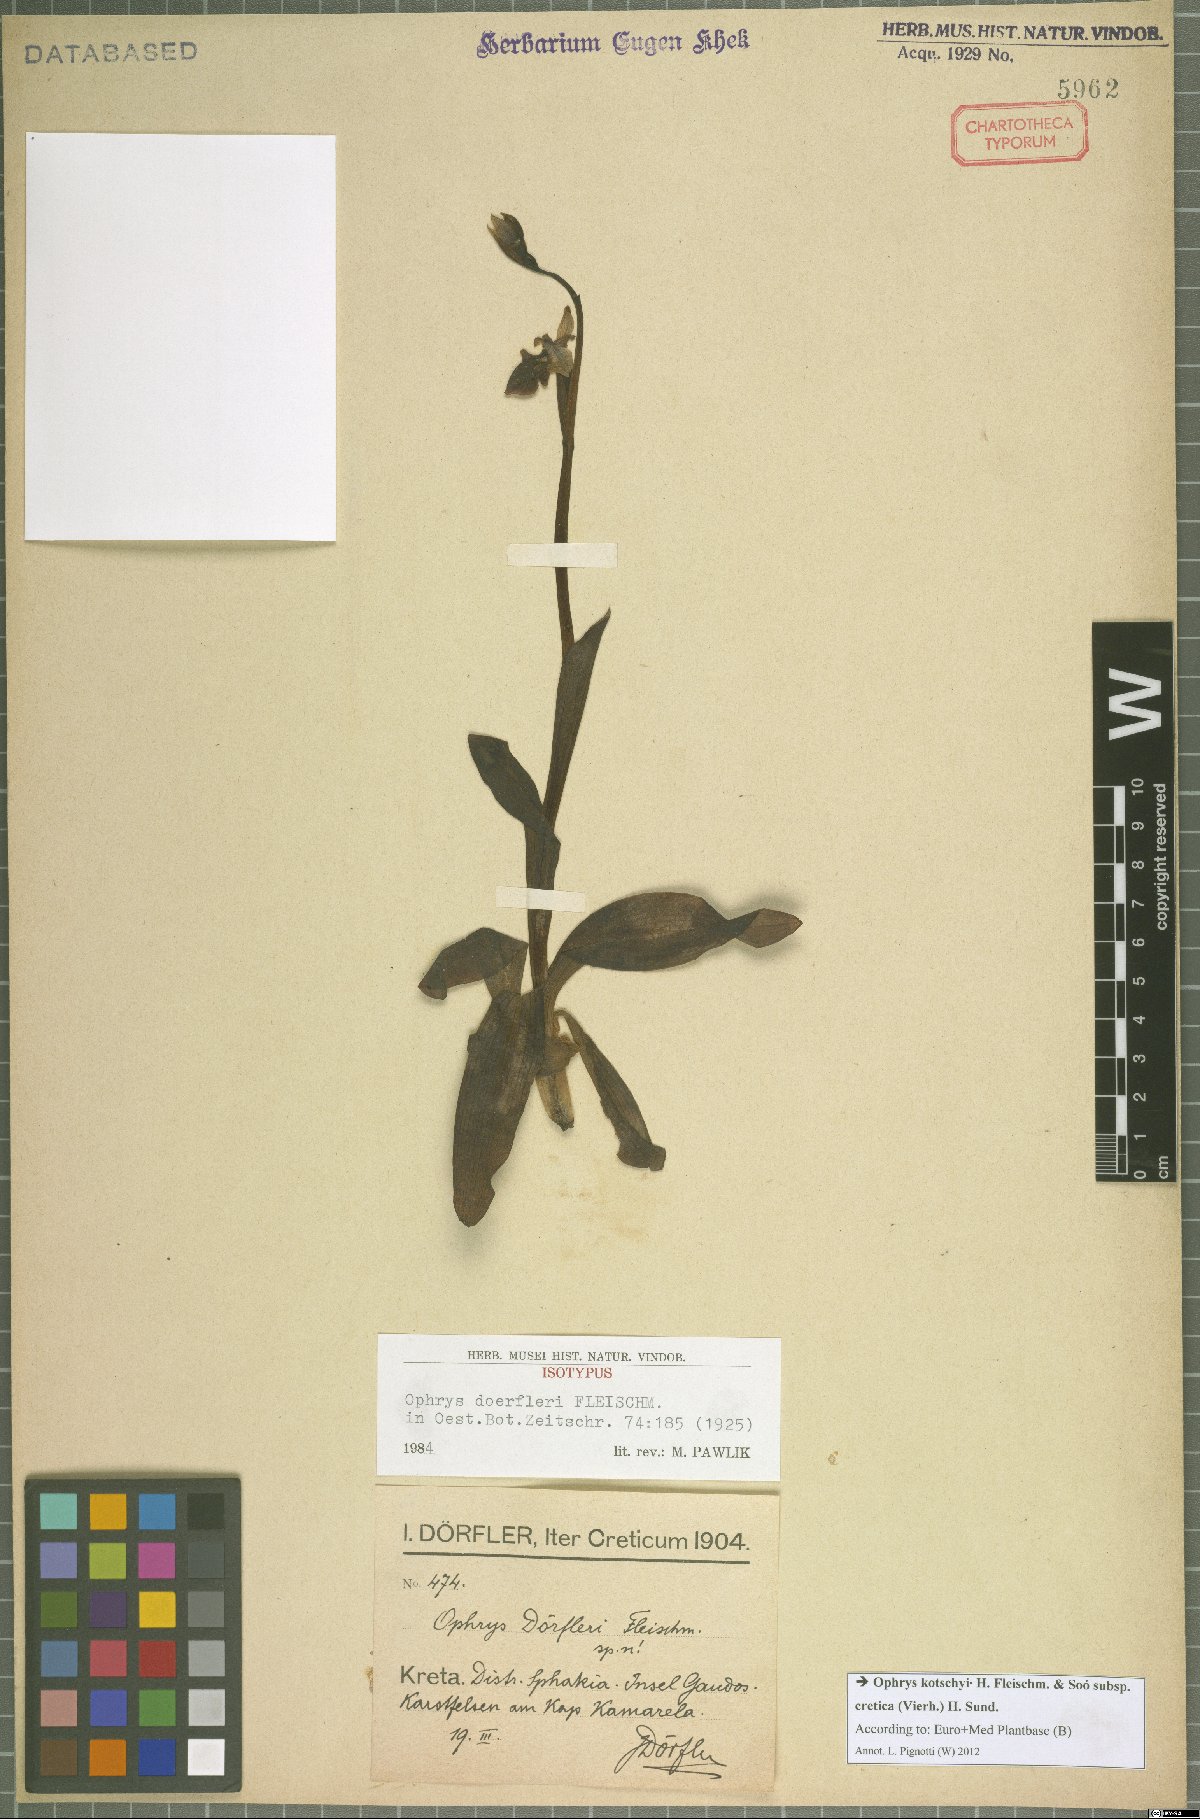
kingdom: Plantae
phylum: Tracheophyta
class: Liliopsida
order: Asparagales
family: Orchidaceae
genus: Ophrys
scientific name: Ophrys cretica
